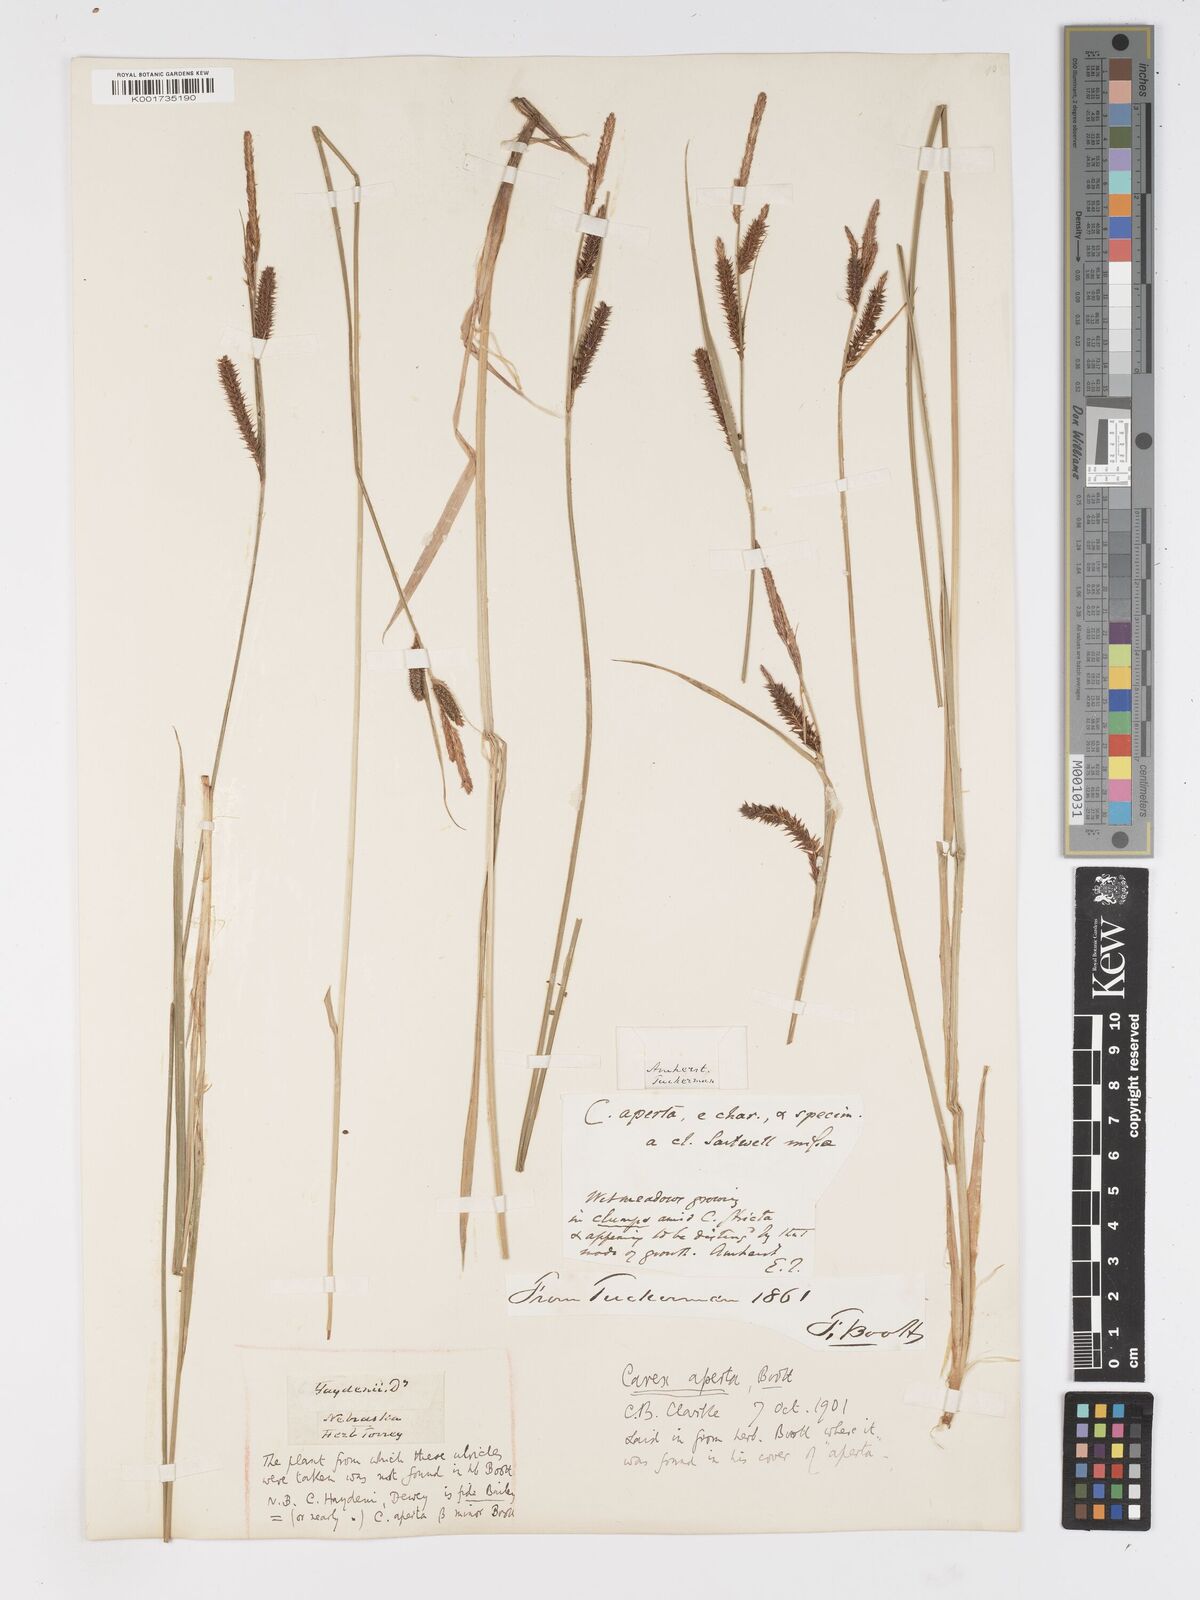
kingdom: Plantae
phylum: Tracheophyta
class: Liliopsida
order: Poales
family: Cyperaceae
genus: Carex
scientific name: Carex haydenii
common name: Hayden's sedge
